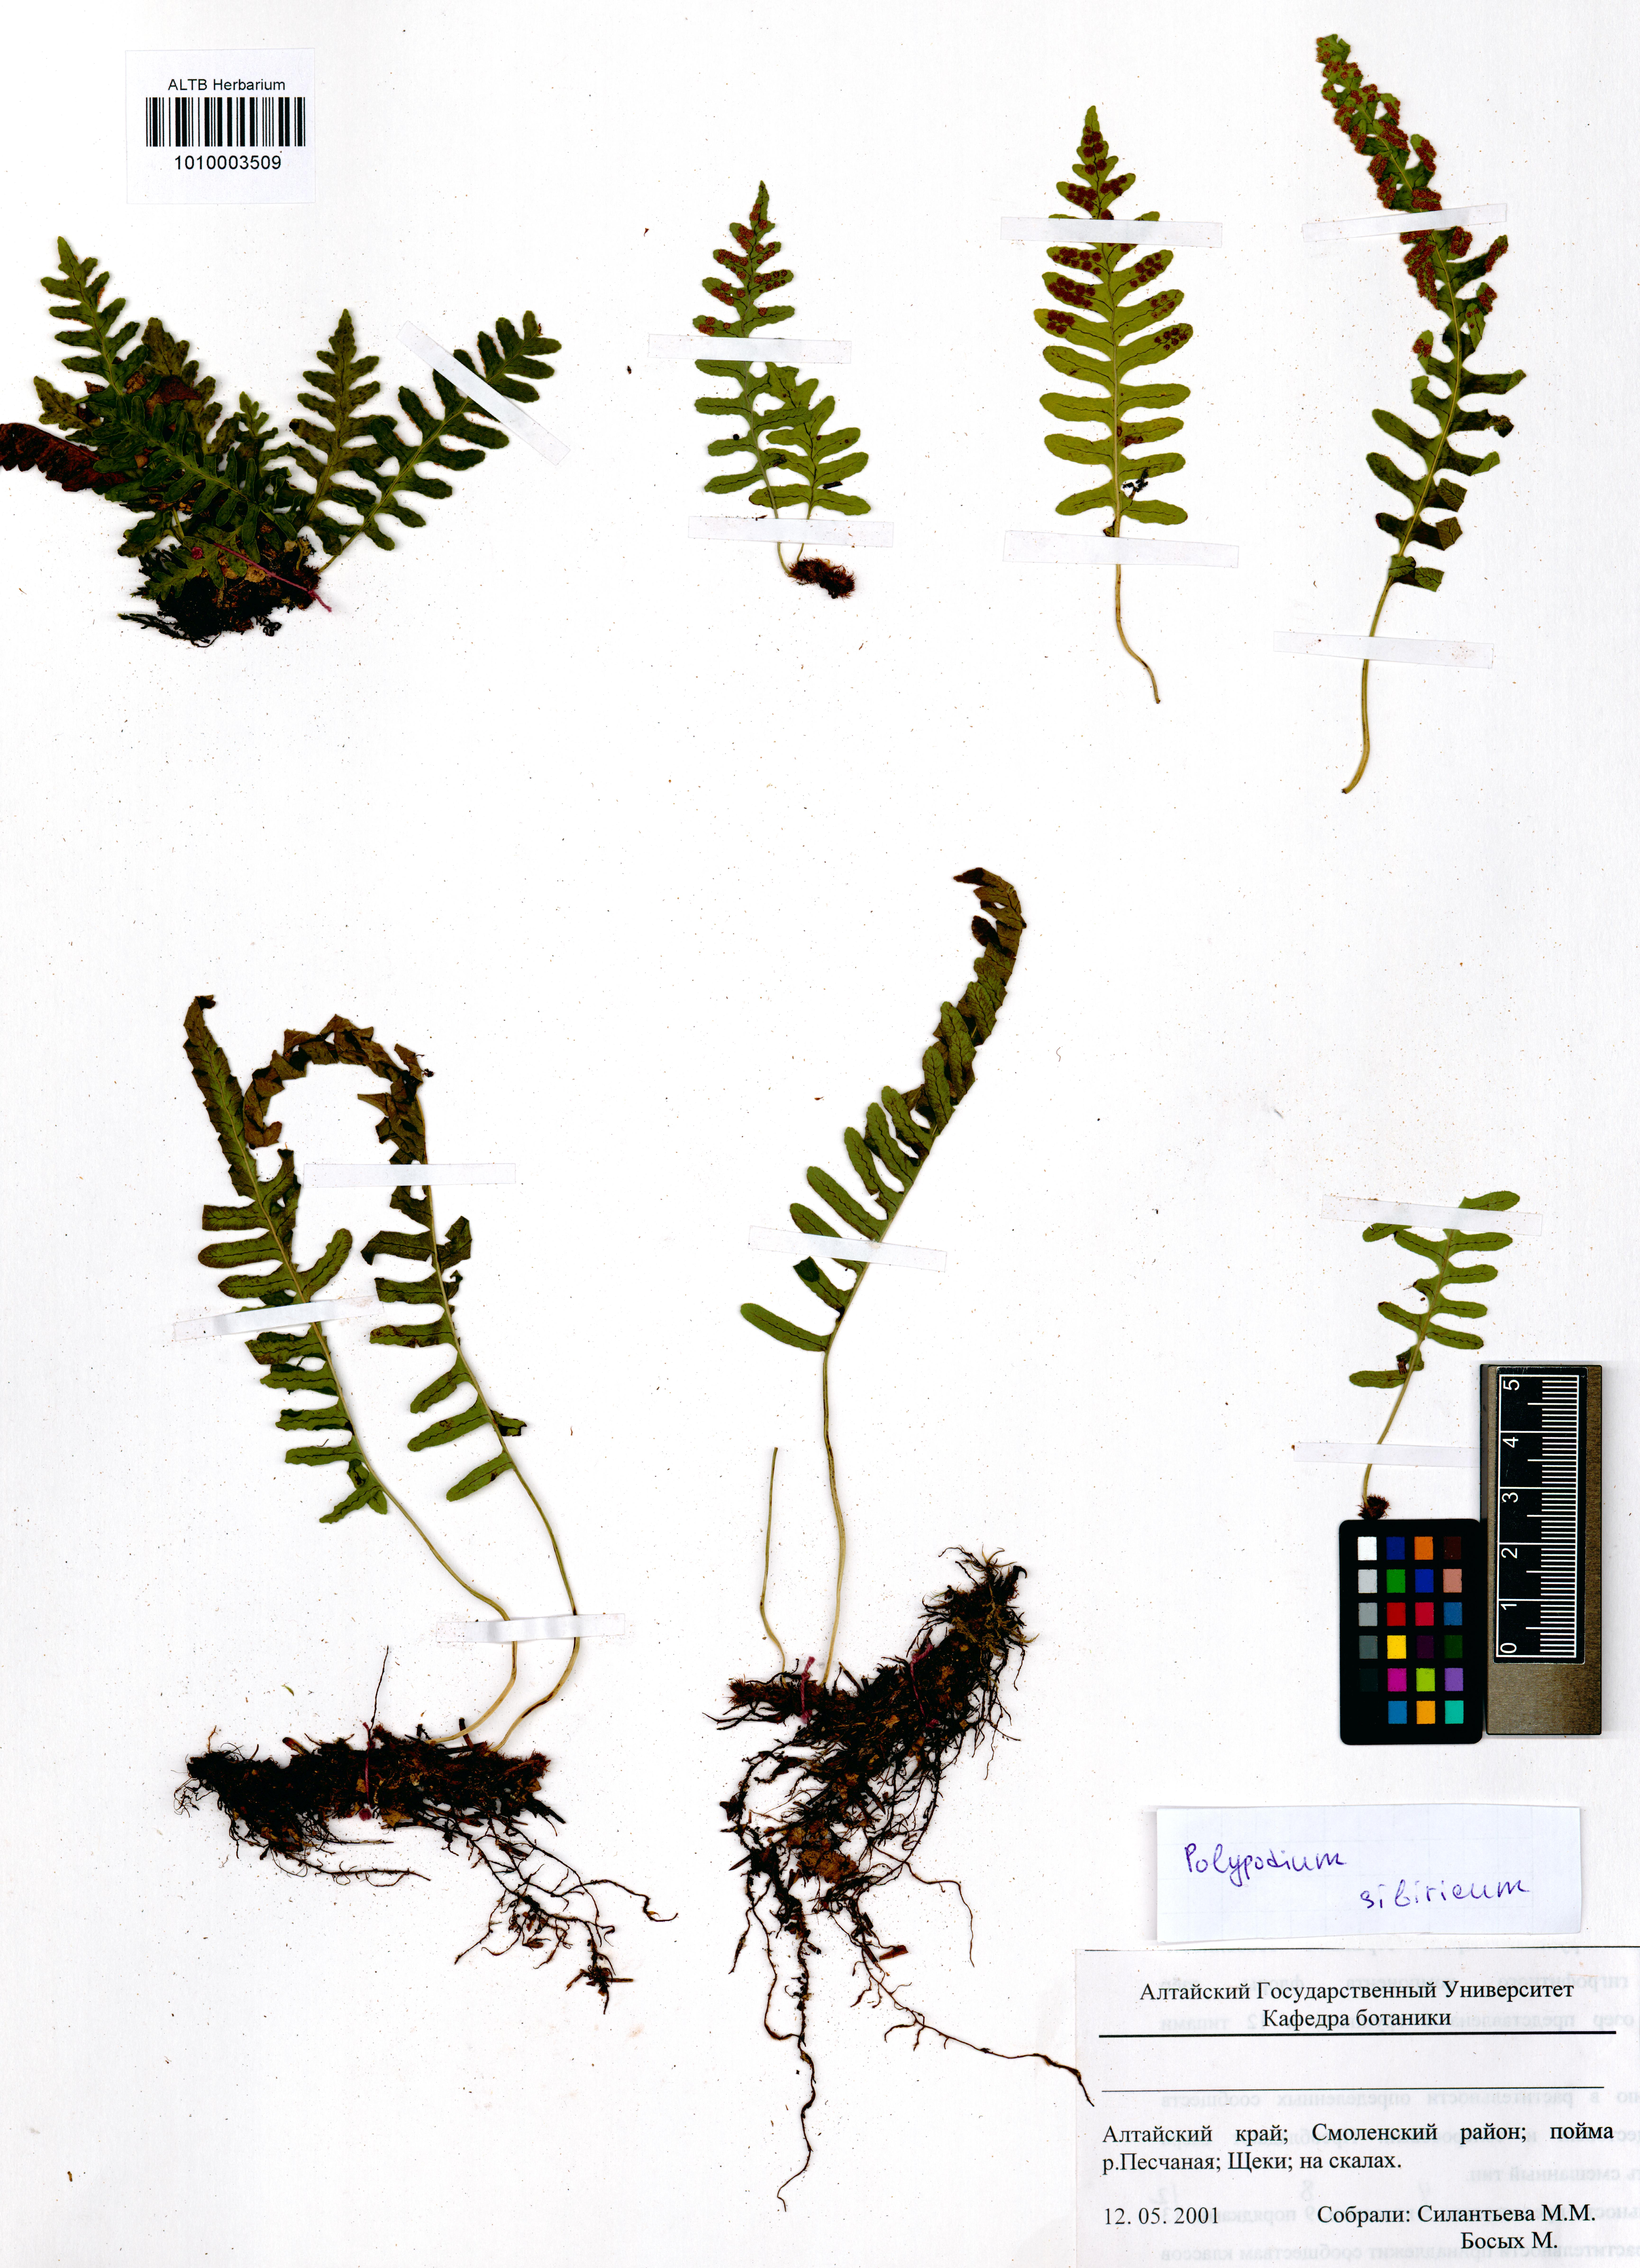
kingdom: Plantae
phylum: Tracheophyta
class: Polypodiopsida
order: Polypodiales
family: Polypodiaceae
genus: Polypodium
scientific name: Polypodium sibiricum
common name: Siberian polypody
